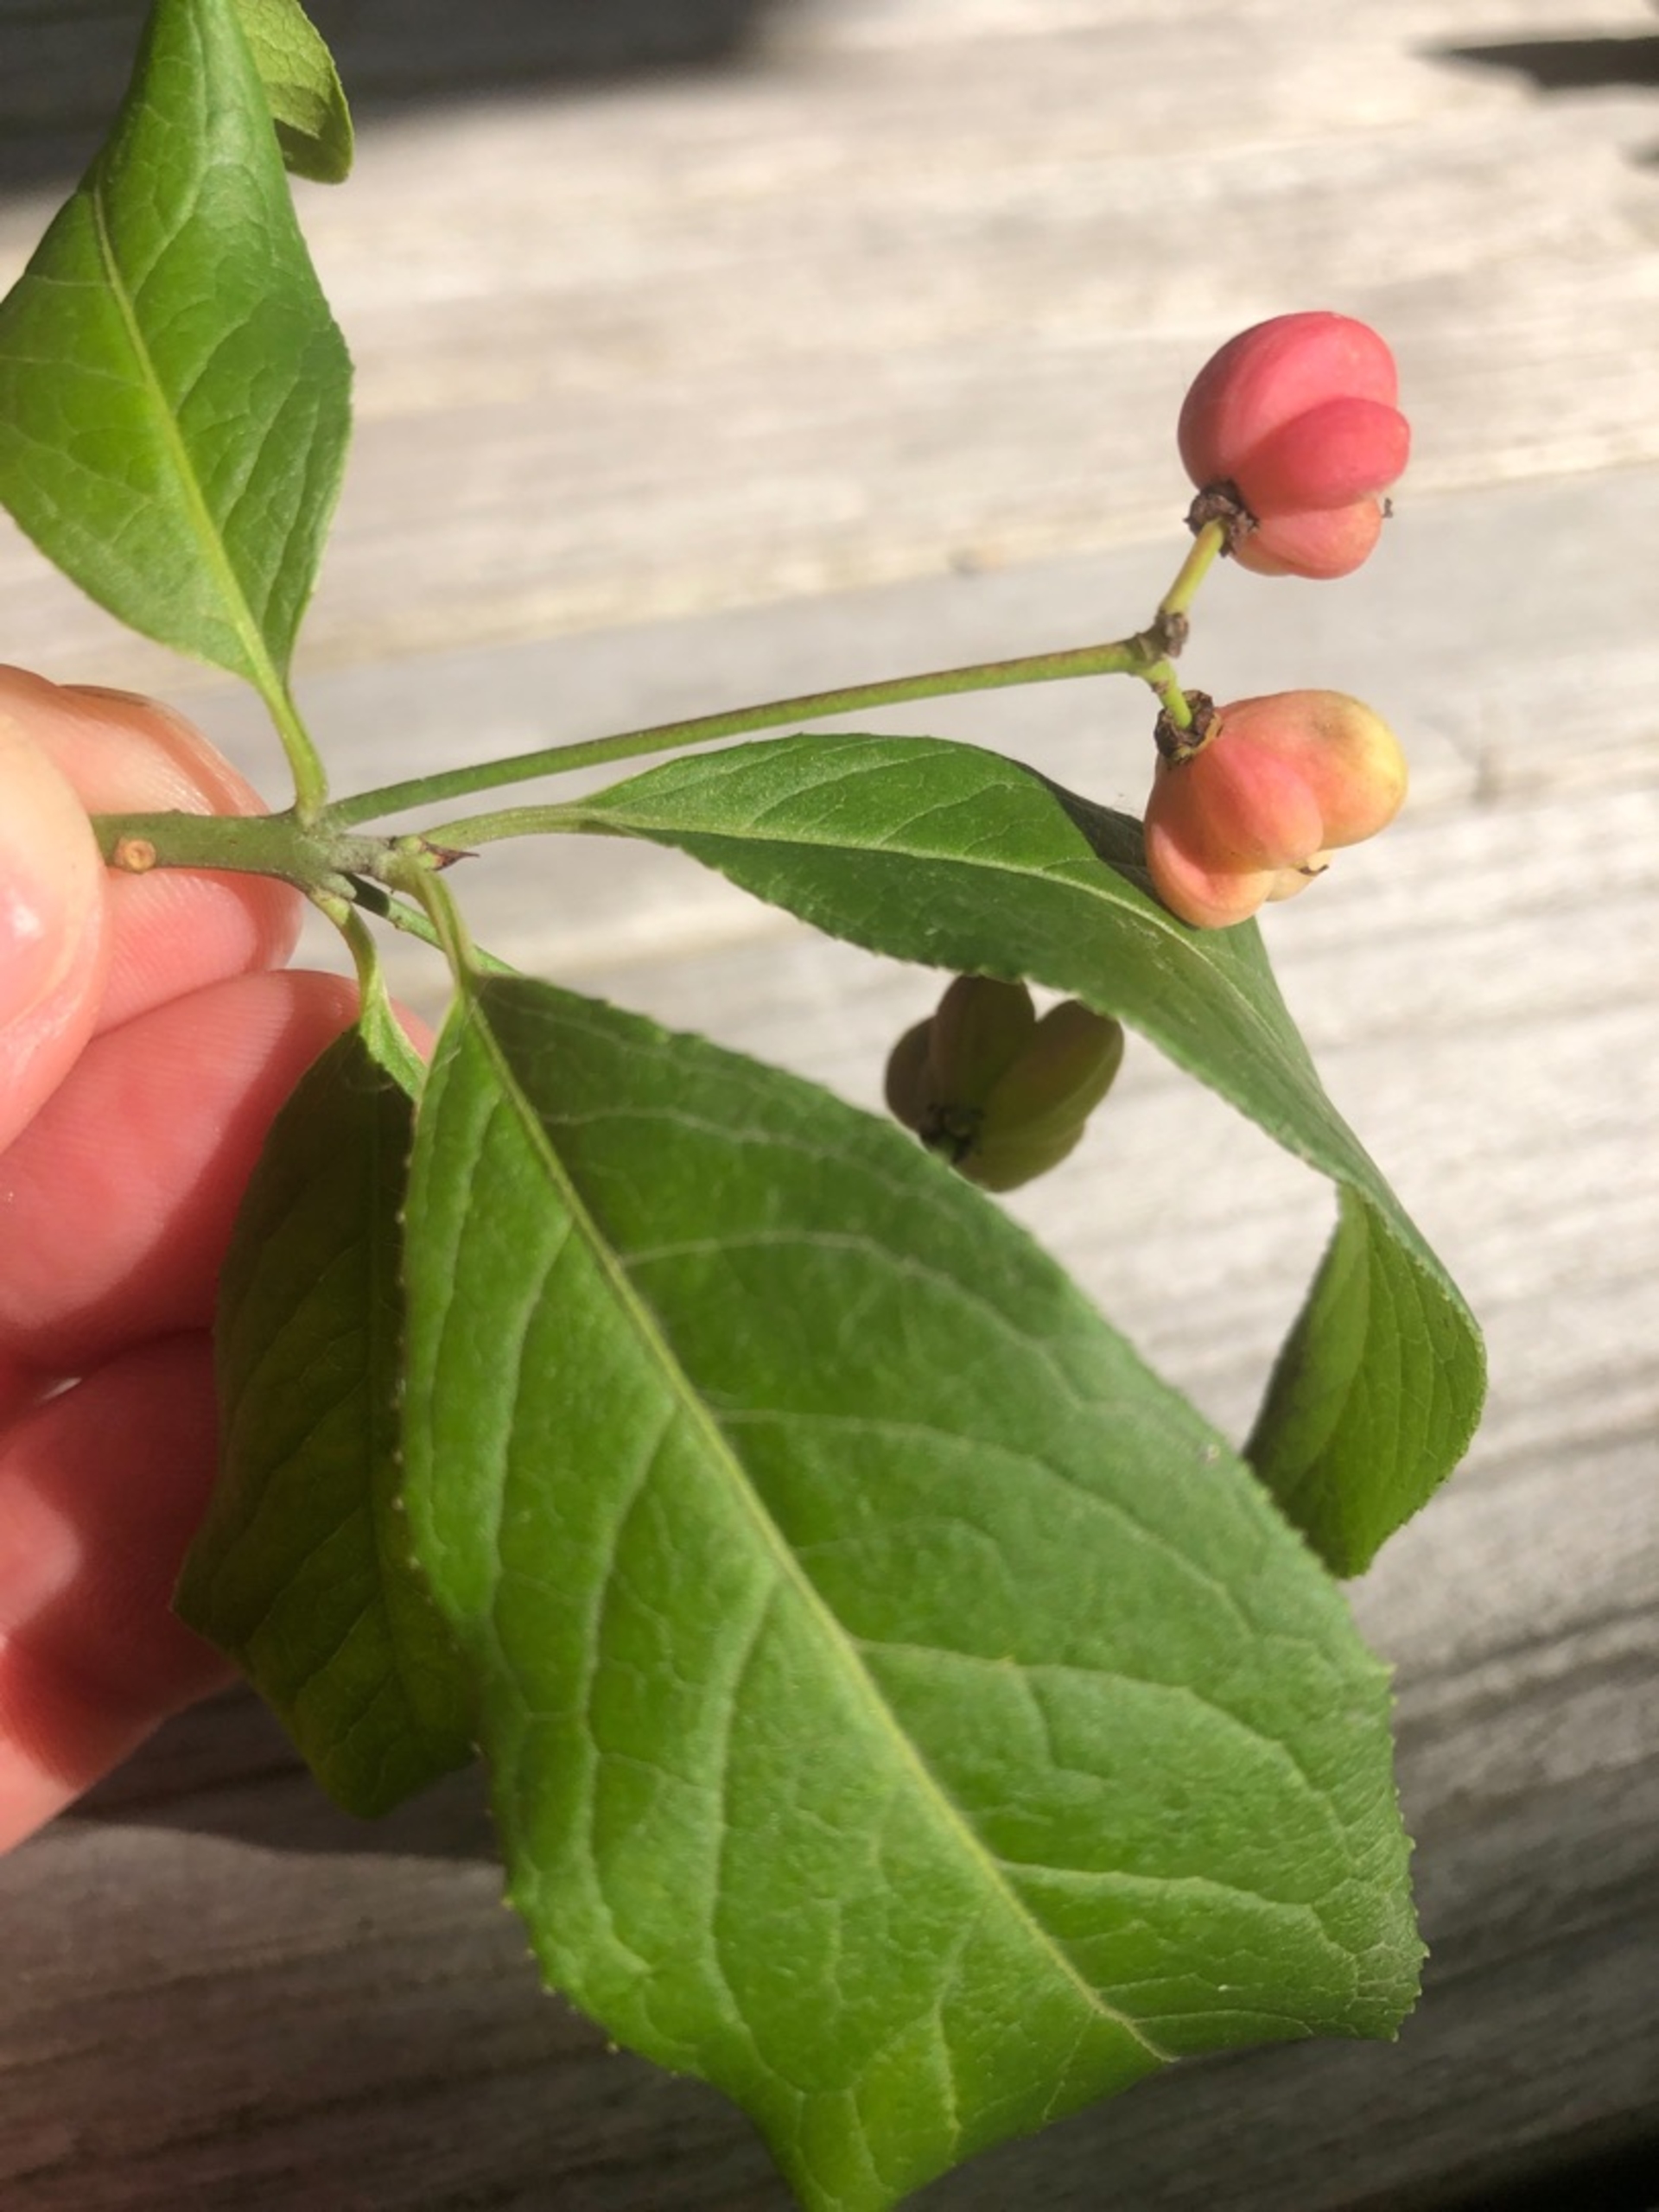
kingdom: Plantae
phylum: Tracheophyta
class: Magnoliopsida
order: Celastrales
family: Celastraceae
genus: Euonymus
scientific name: Euonymus europaeus
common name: Benved
